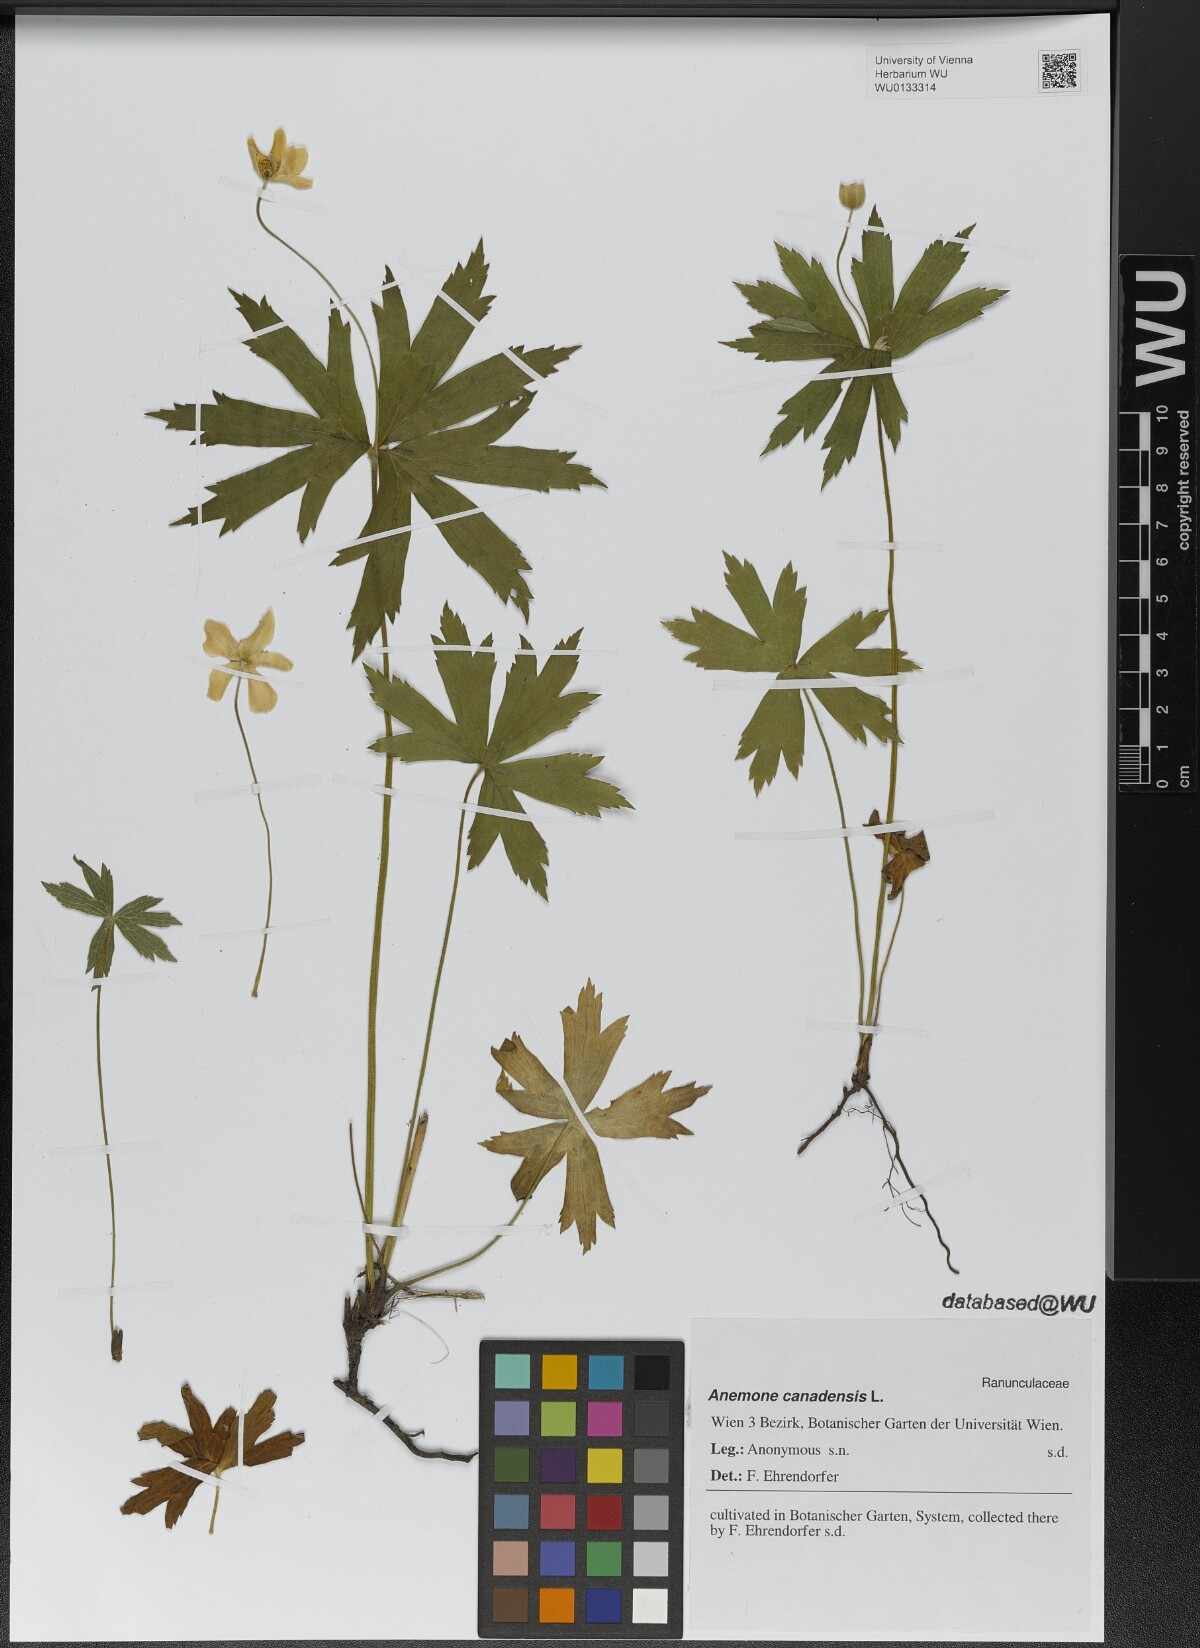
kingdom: Plantae
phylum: Tracheophyta
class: Magnoliopsida
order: Ranunculales
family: Ranunculaceae
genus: Anemonastrum
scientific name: Anemonastrum canadense
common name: Canada anemone
